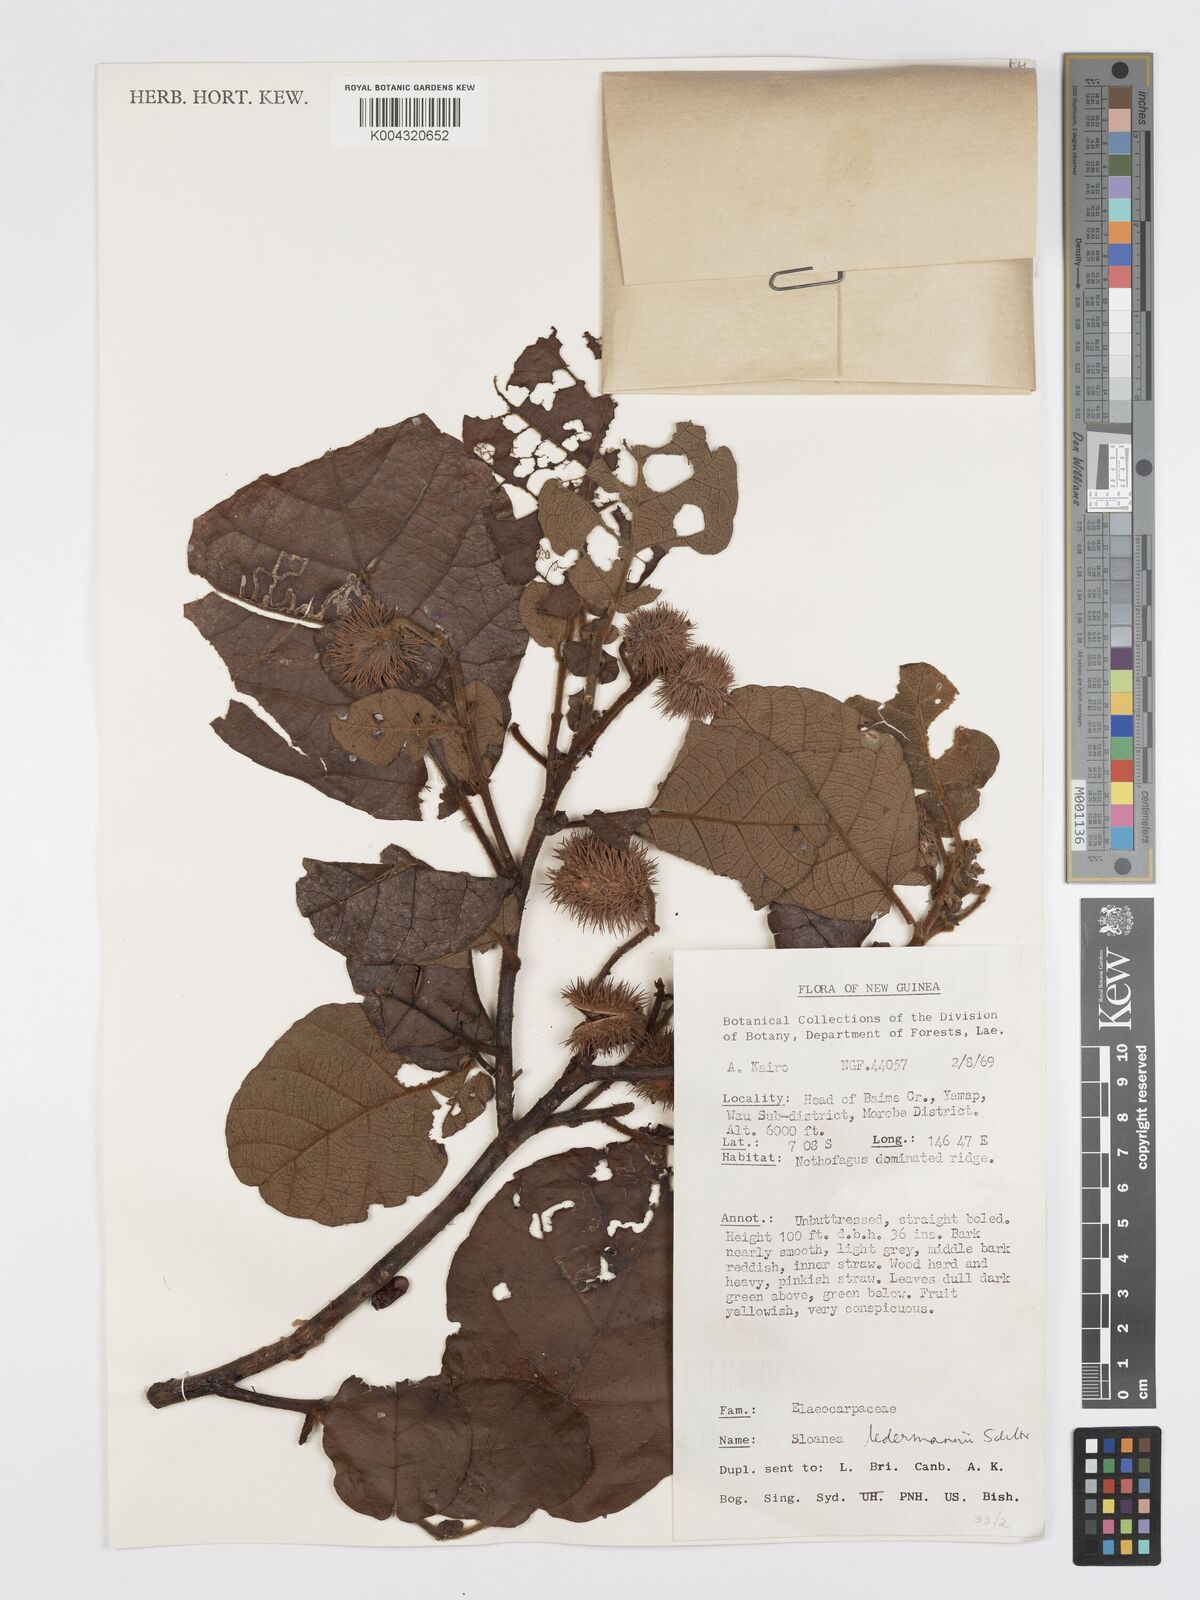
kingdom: Plantae
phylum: Tracheophyta
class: Magnoliopsida
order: Oxalidales
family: Elaeocarpaceae
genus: Sloanea
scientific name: Sloanea ledermannii
